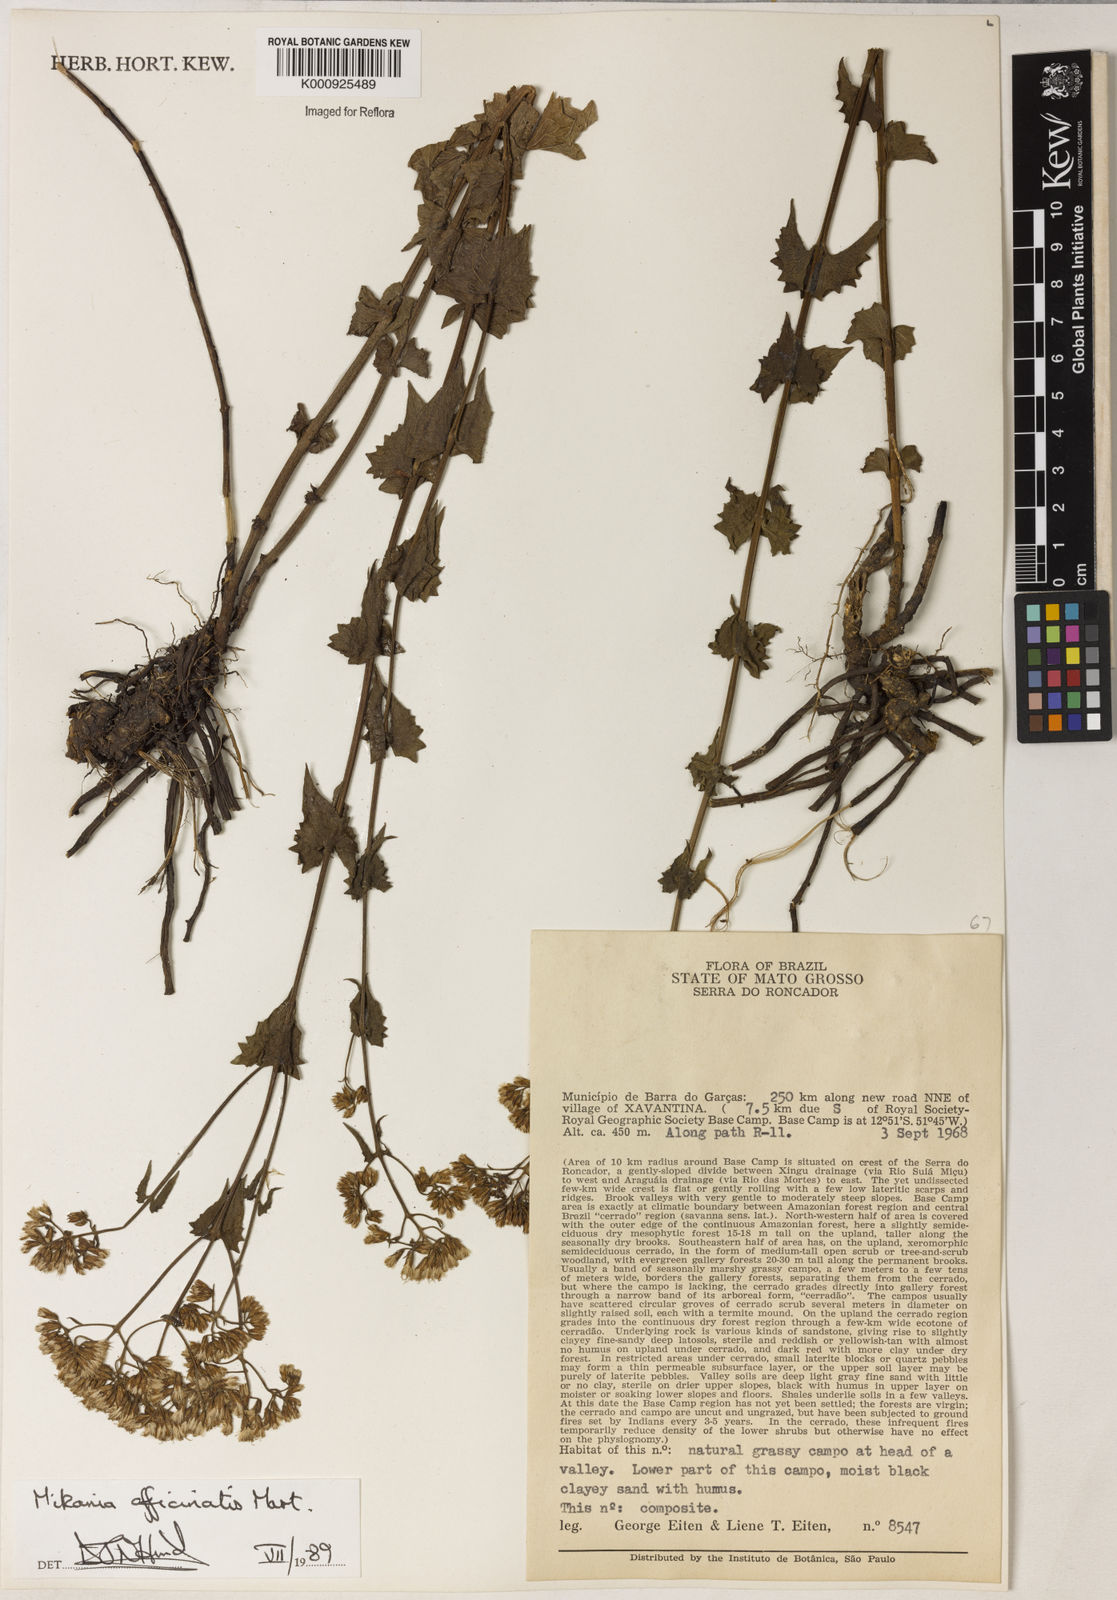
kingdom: Plantae
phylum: Tracheophyta
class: Magnoliopsida
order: Asterales
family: Asteraceae
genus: Mikania
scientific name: Mikania officinalis
